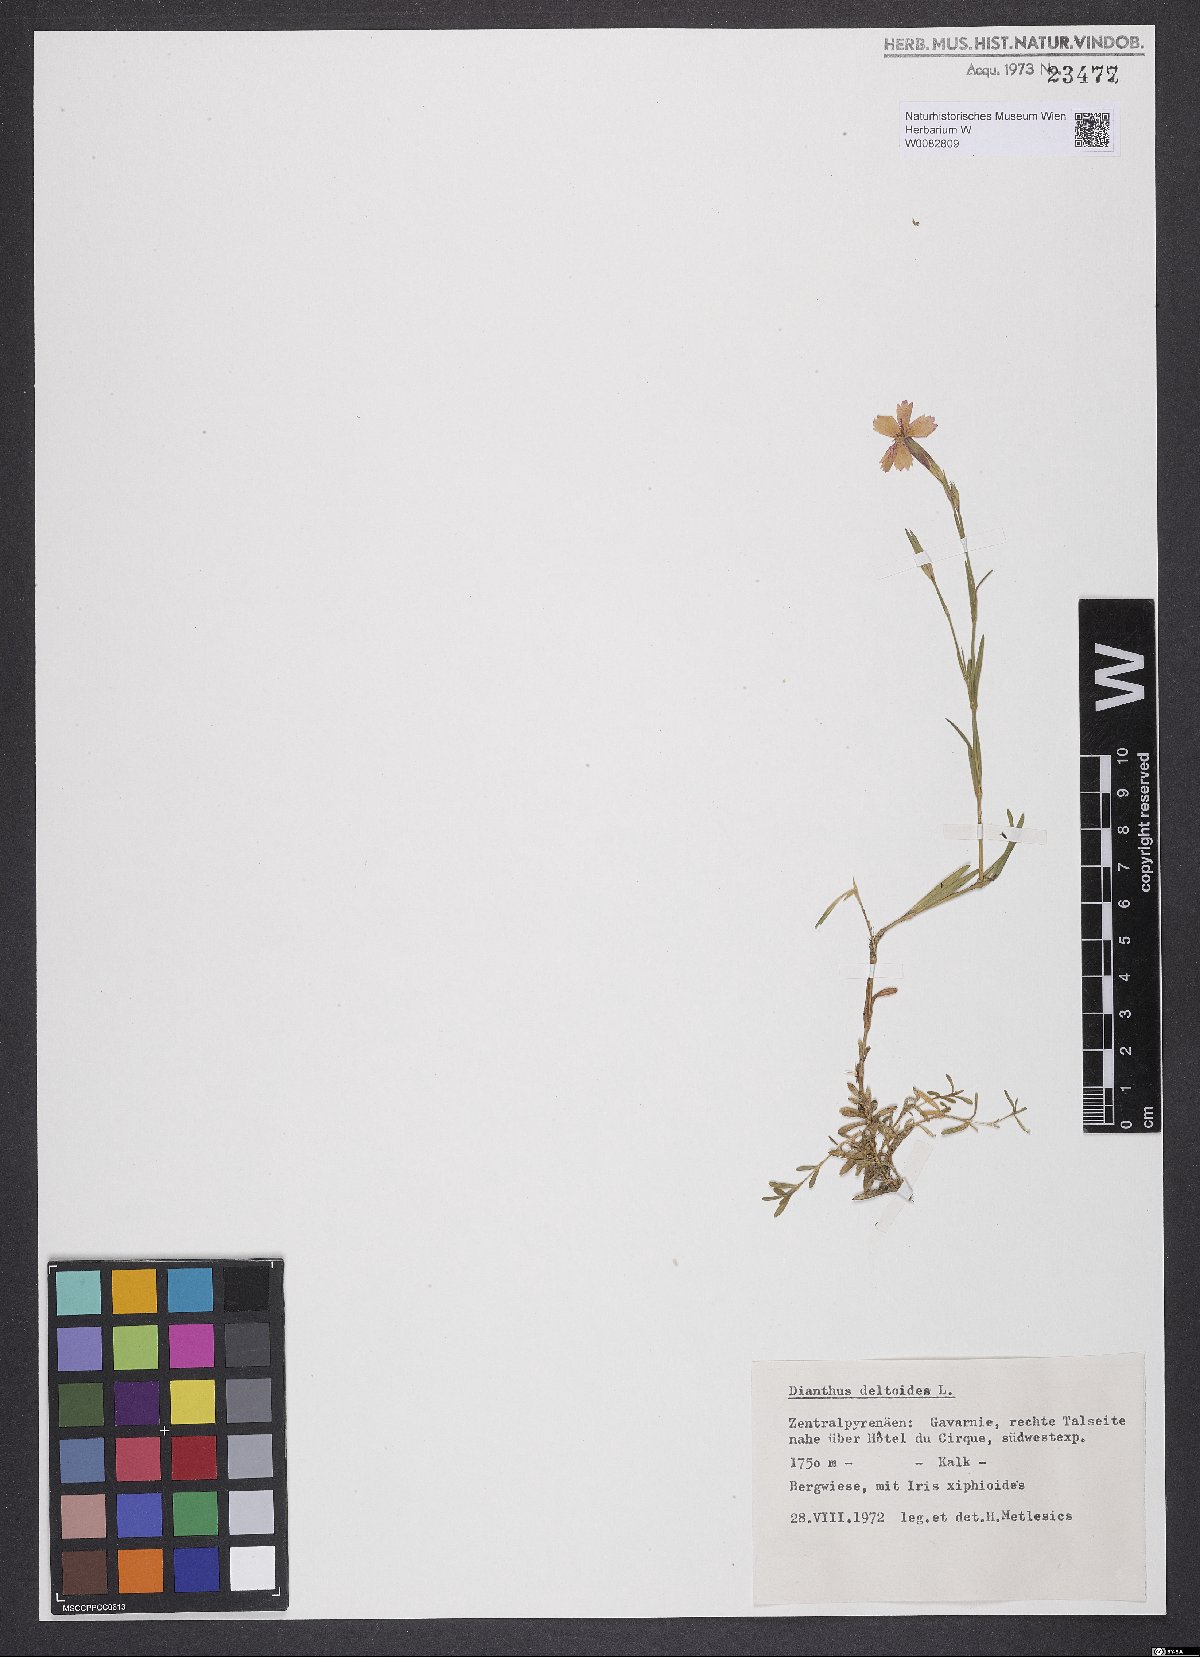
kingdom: Plantae
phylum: Tracheophyta
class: Magnoliopsida
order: Caryophyllales
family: Caryophyllaceae
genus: Dianthus
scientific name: Dianthus deltoides
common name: Maiden pink
